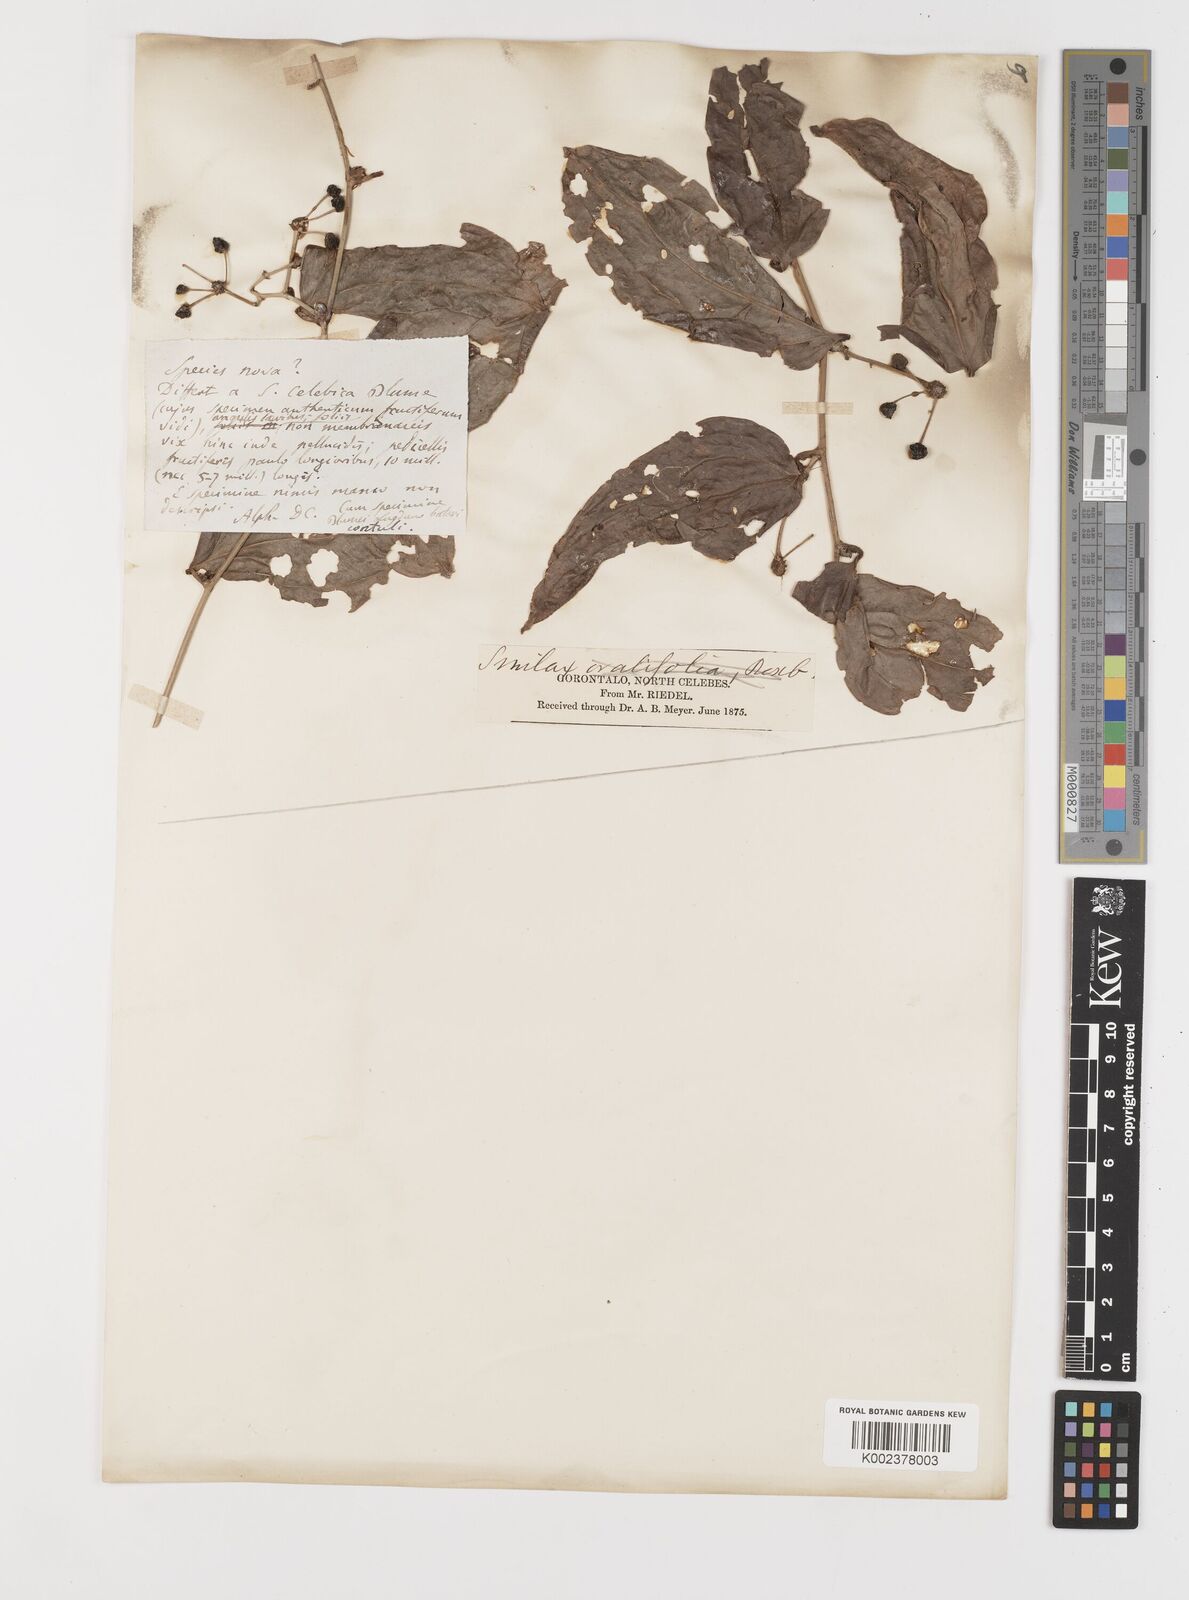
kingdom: Plantae
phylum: Tracheophyta
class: Liliopsida
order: Liliales
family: Smilacaceae
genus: Smilax
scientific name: Smilax
